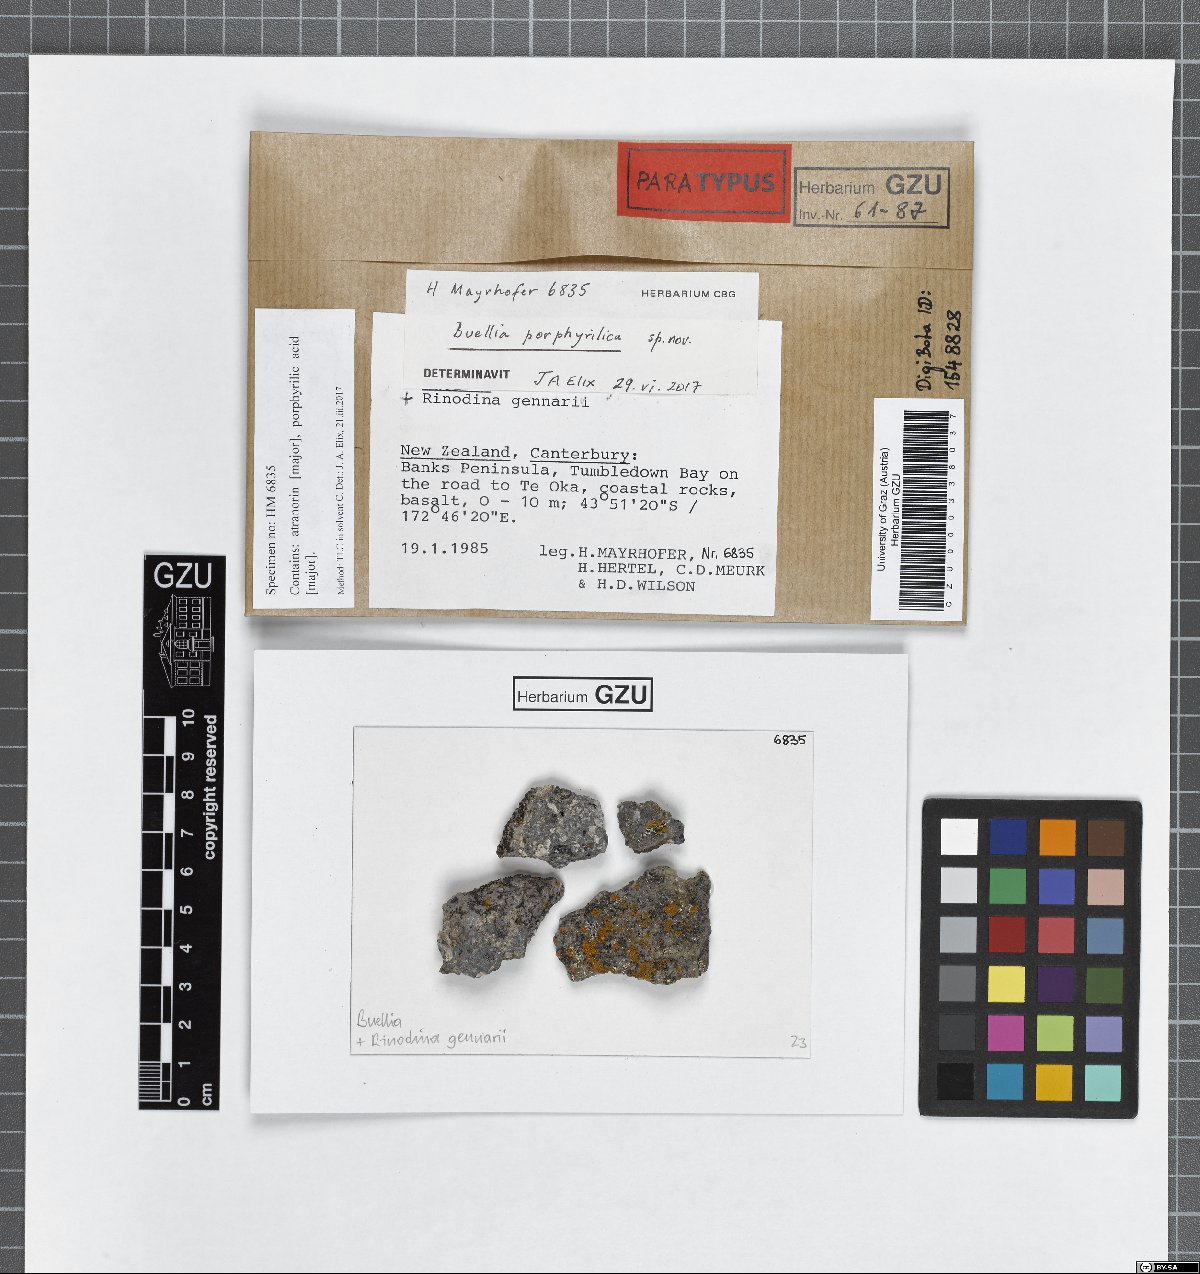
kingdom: Fungi
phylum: Ascomycota
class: Lecanoromycetes
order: Caliciales
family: Caliciaceae
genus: Buellia
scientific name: Buellia porphyrilica
